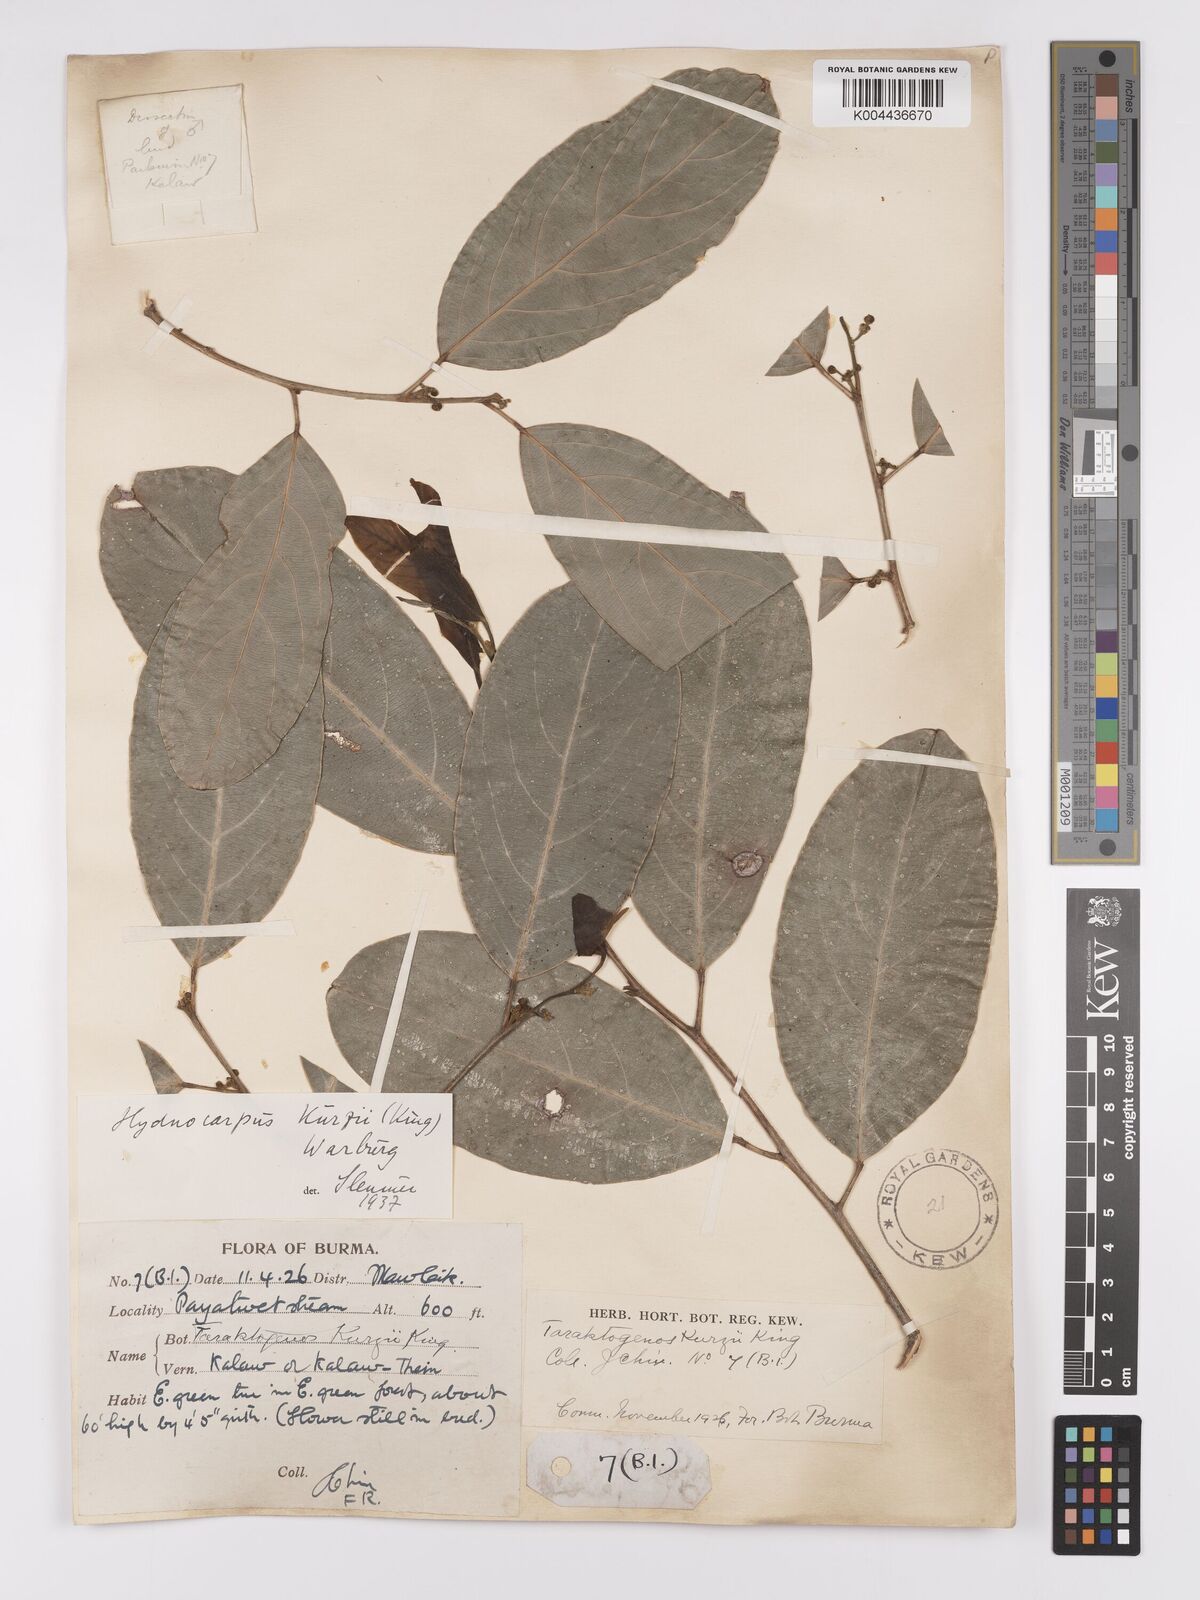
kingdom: Plantae
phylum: Tracheophyta
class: Magnoliopsida
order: Malpighiales
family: Achariaceae
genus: Hydnocarpus
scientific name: Hydnocarpus kurzii
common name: Chaulmoogra
